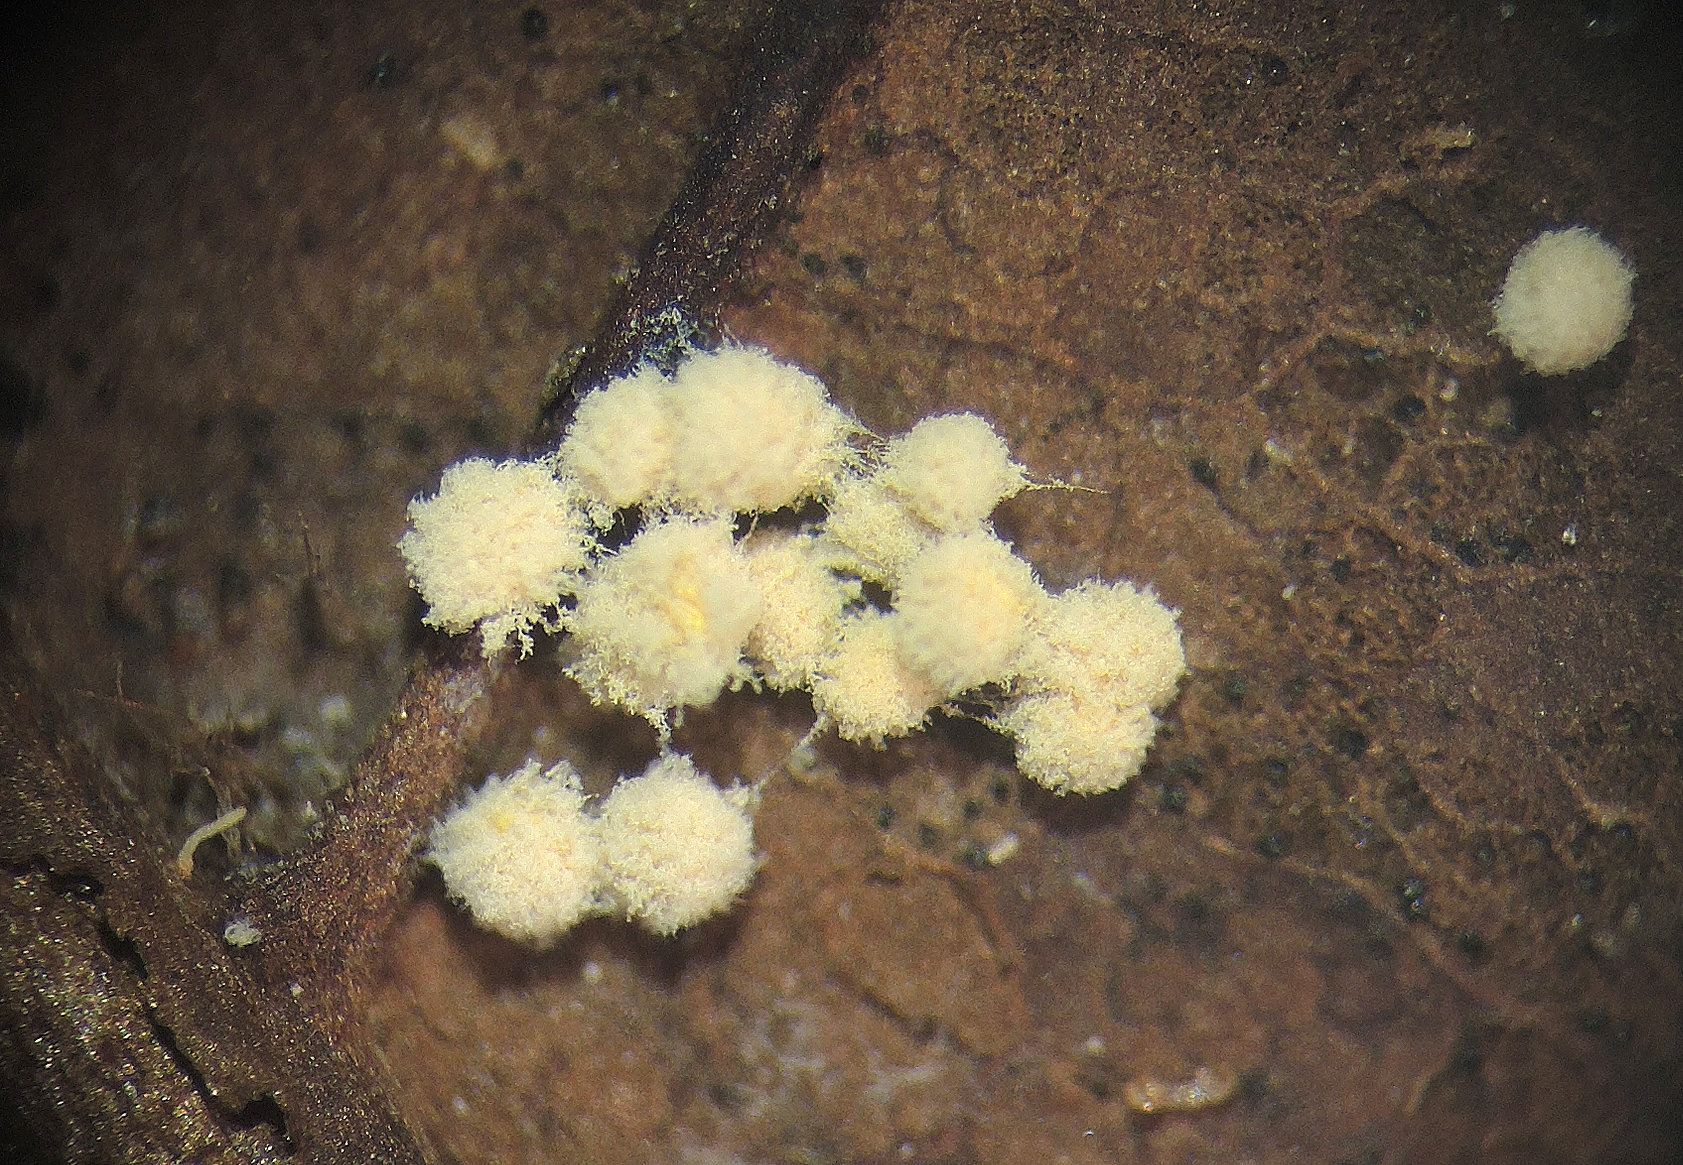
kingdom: Fungi
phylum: Ascomycota
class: Eurotiomycetes
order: Onygenales
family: Arthrodermataceae
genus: Arthroderma
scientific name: Arthroderma quadrifidum
